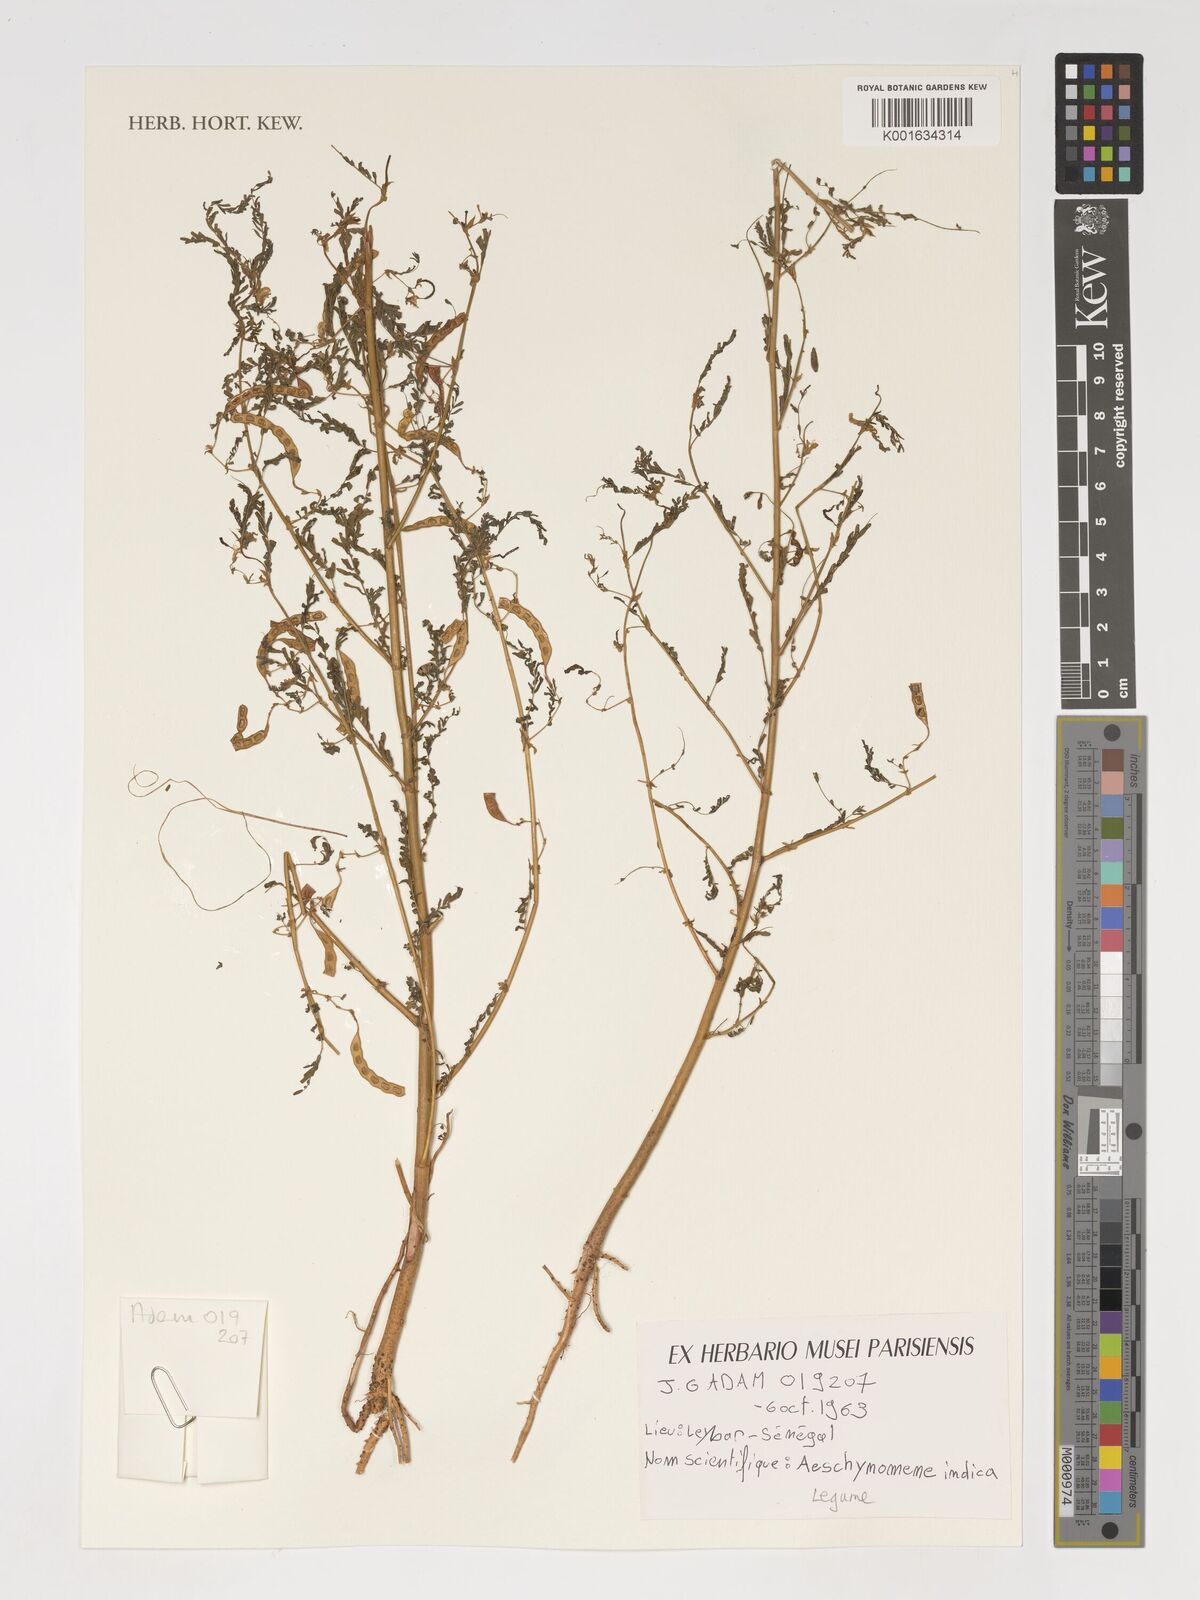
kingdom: Plantae
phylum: Tracheophyta
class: Magnoliopsida
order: Fabales
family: Fabaceae
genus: Aeschynomene
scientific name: Aeschynomene indica
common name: Indian jointvetch
